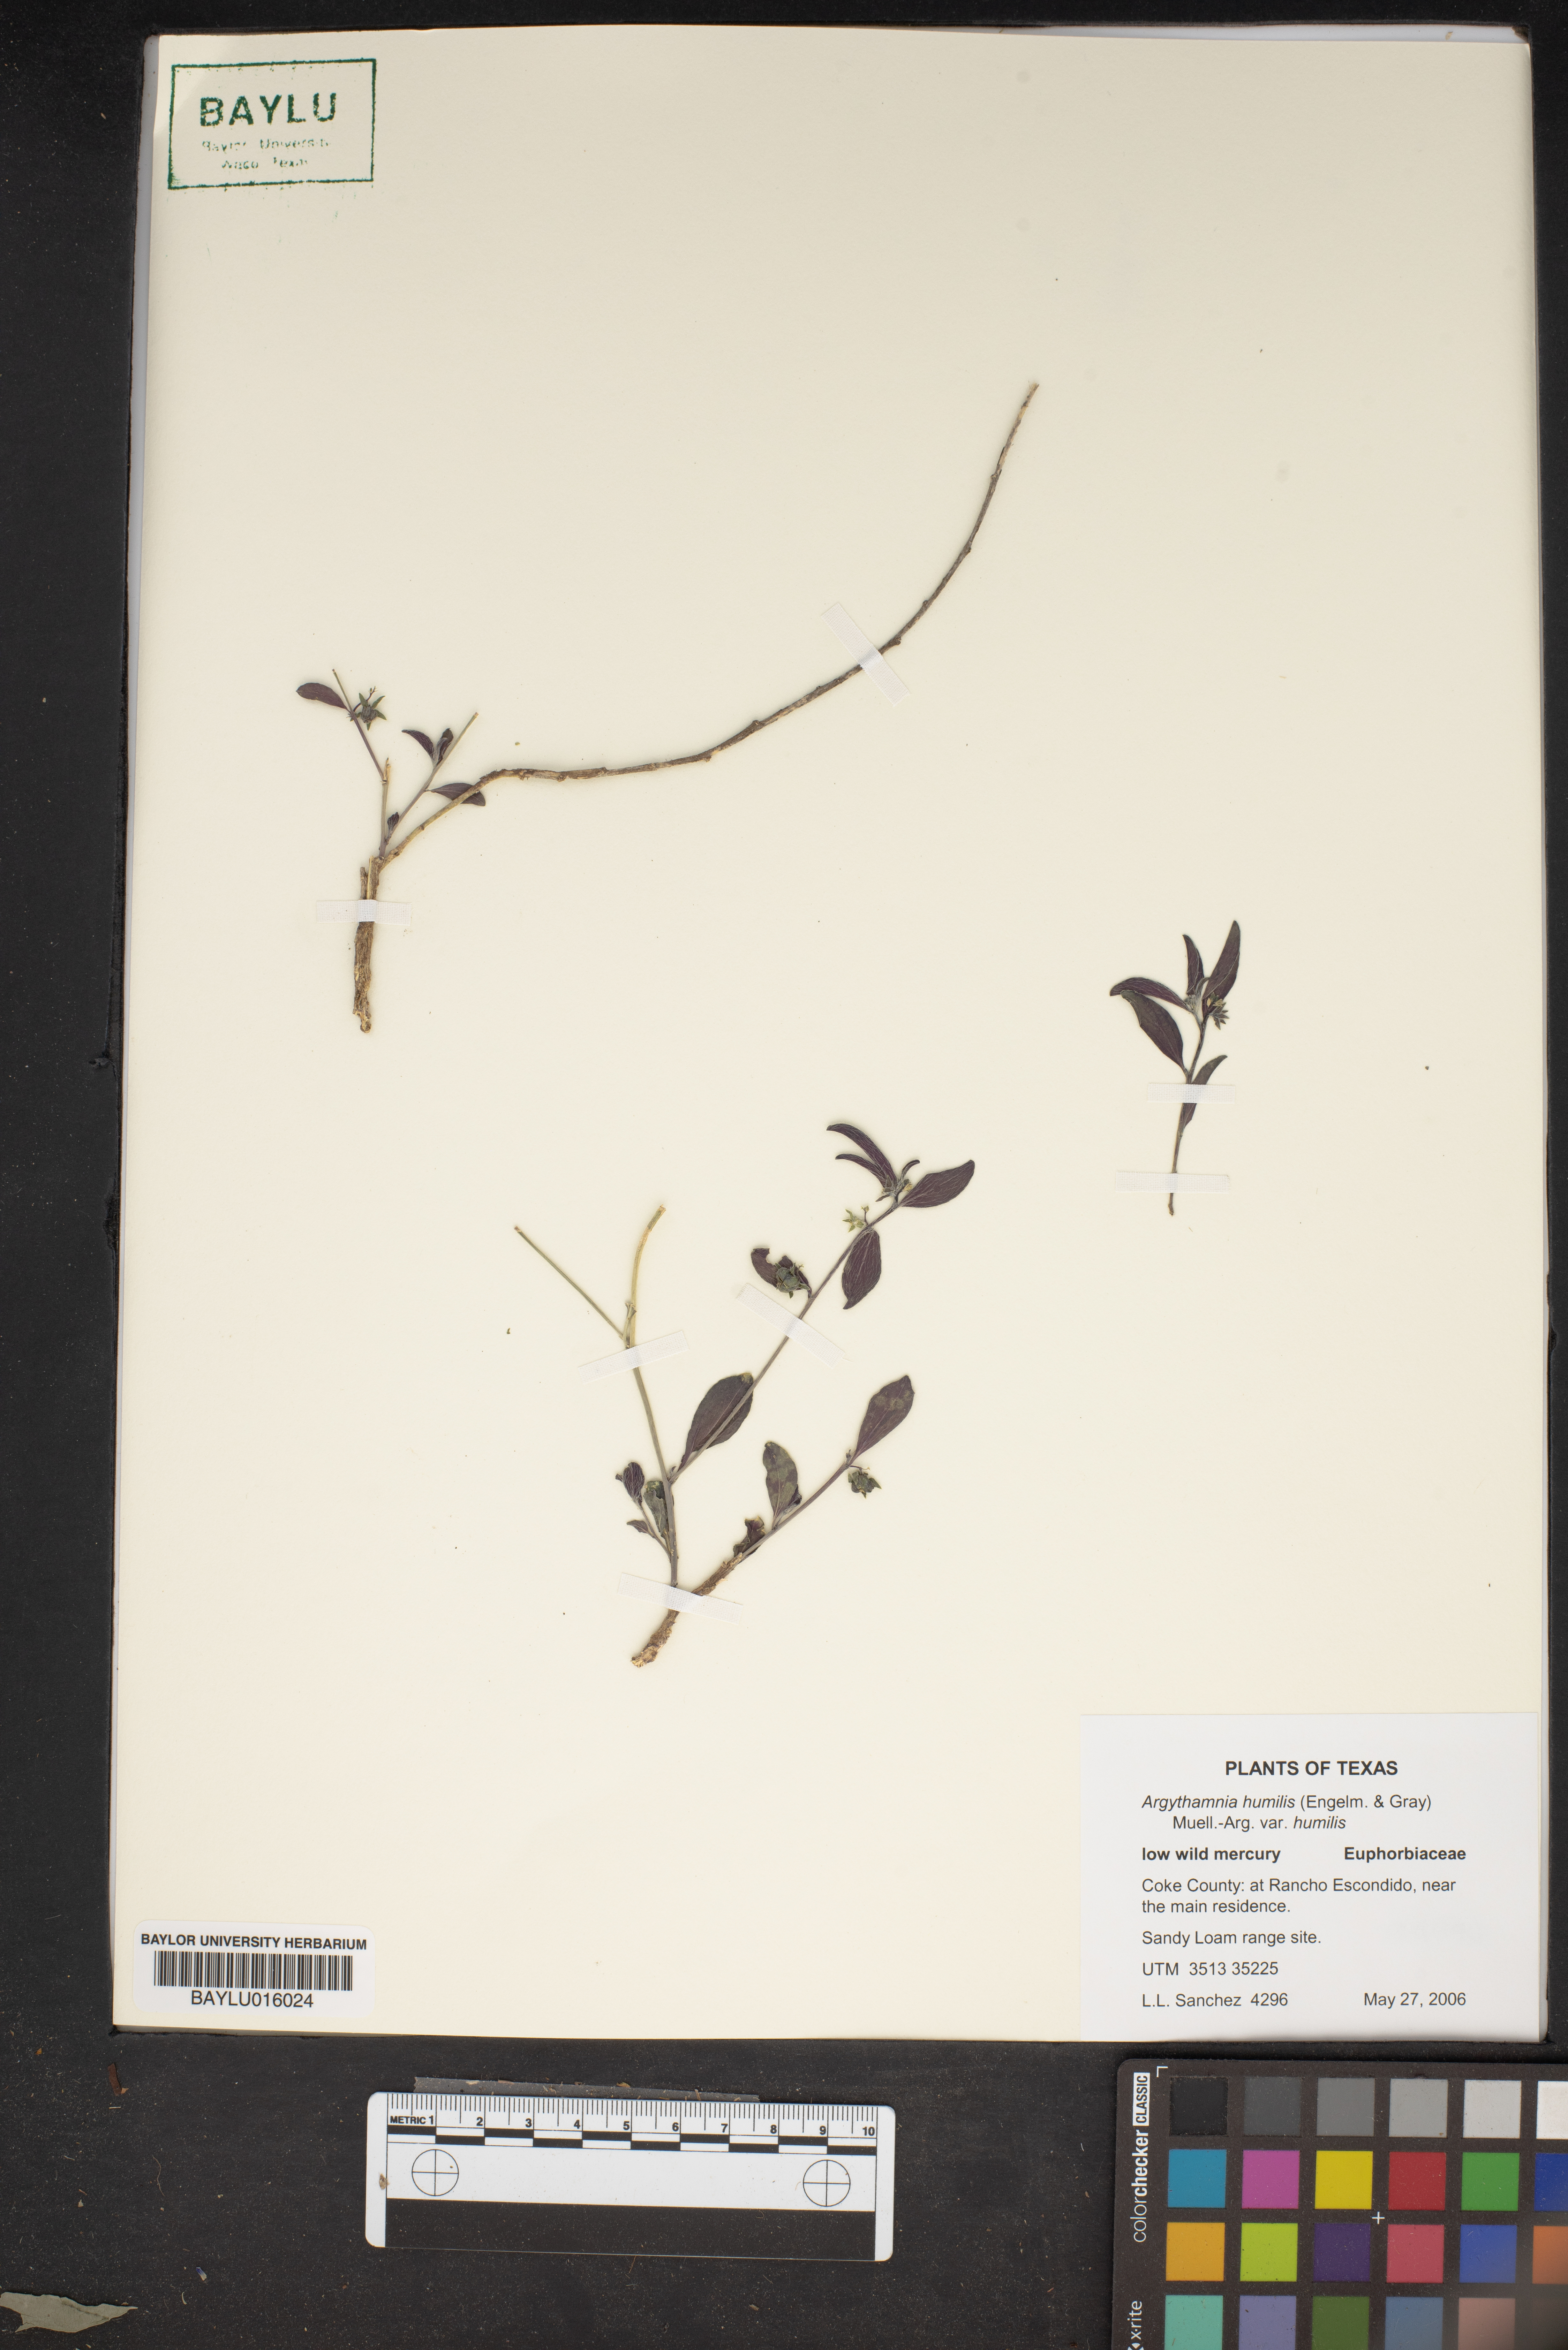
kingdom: Plantae
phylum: Tracheophyta
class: Magnoliopsida
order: Malpighiales
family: Euphorbiaceae
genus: Ditaxis
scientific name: Ditaxis humilis
